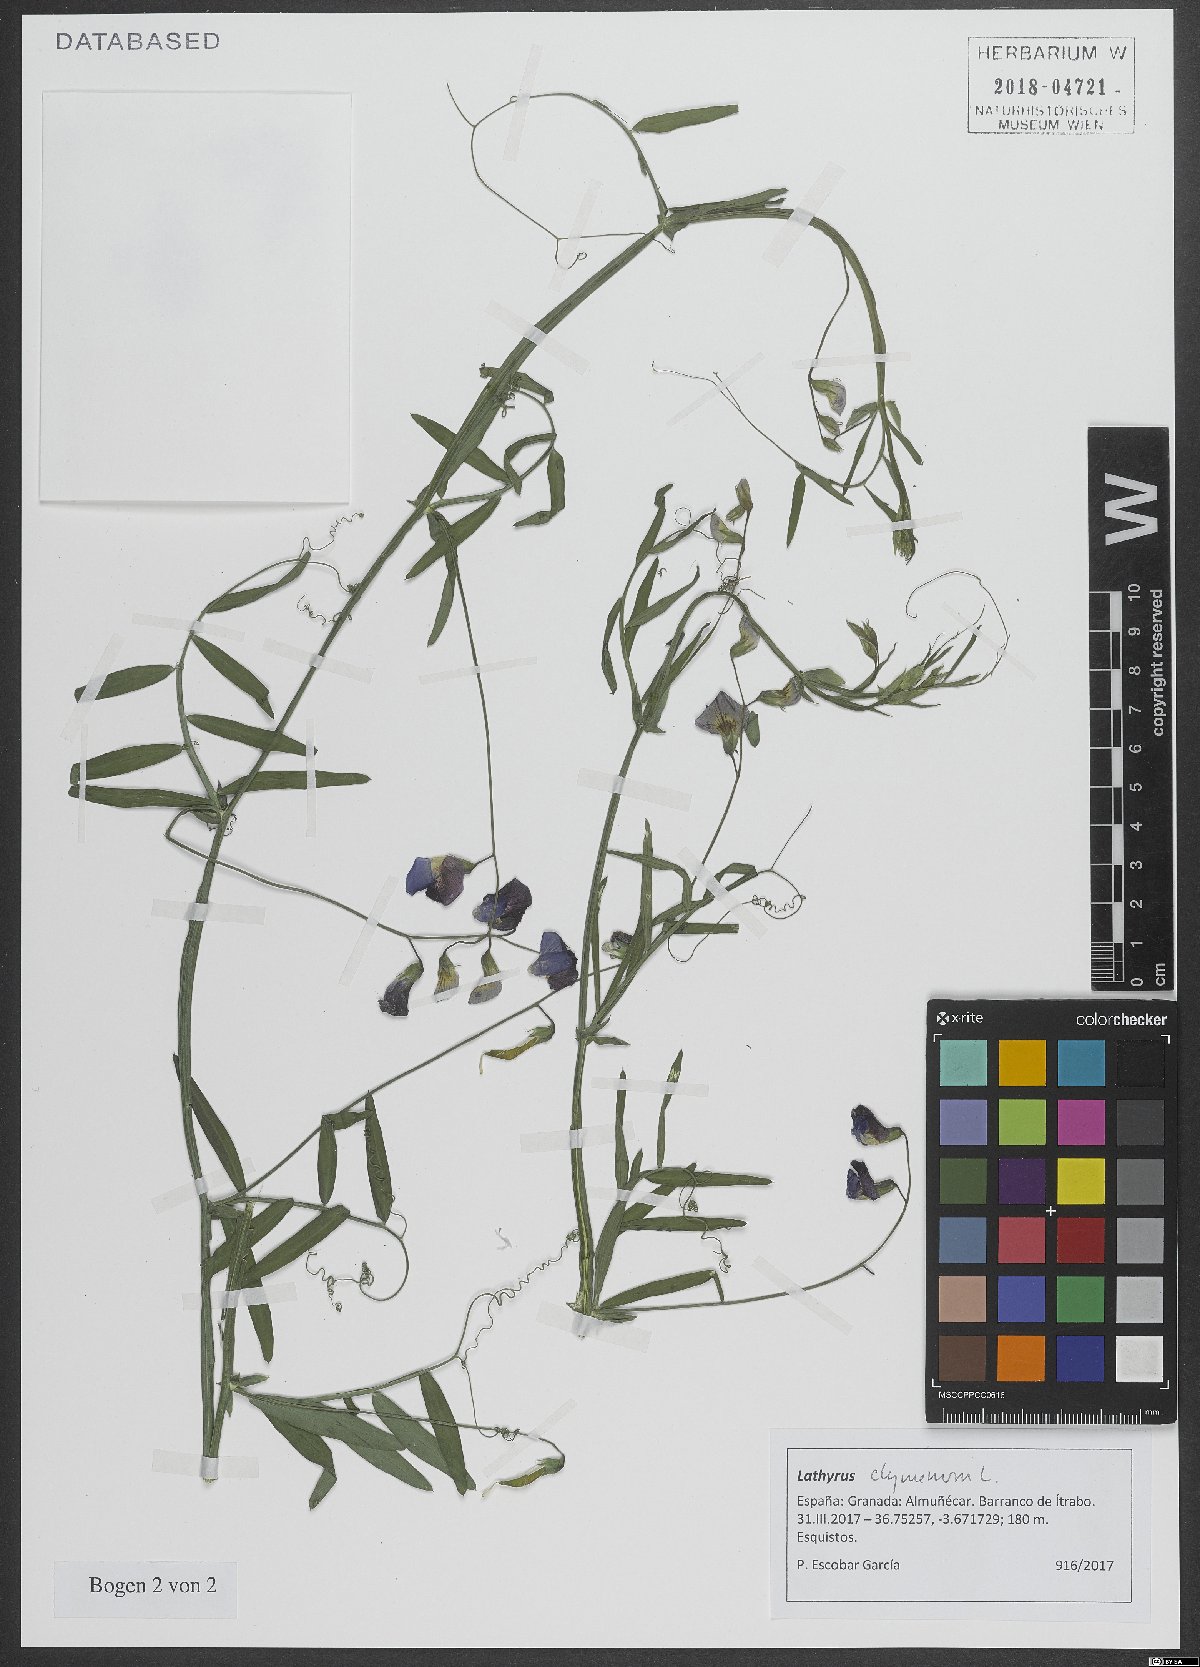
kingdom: Plantae
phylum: Tracheophyta
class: Magnoliopsida
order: Fabales
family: Fabaceae
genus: Lathyrus
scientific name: Lathyrus clymenum
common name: Spanish vetchling
